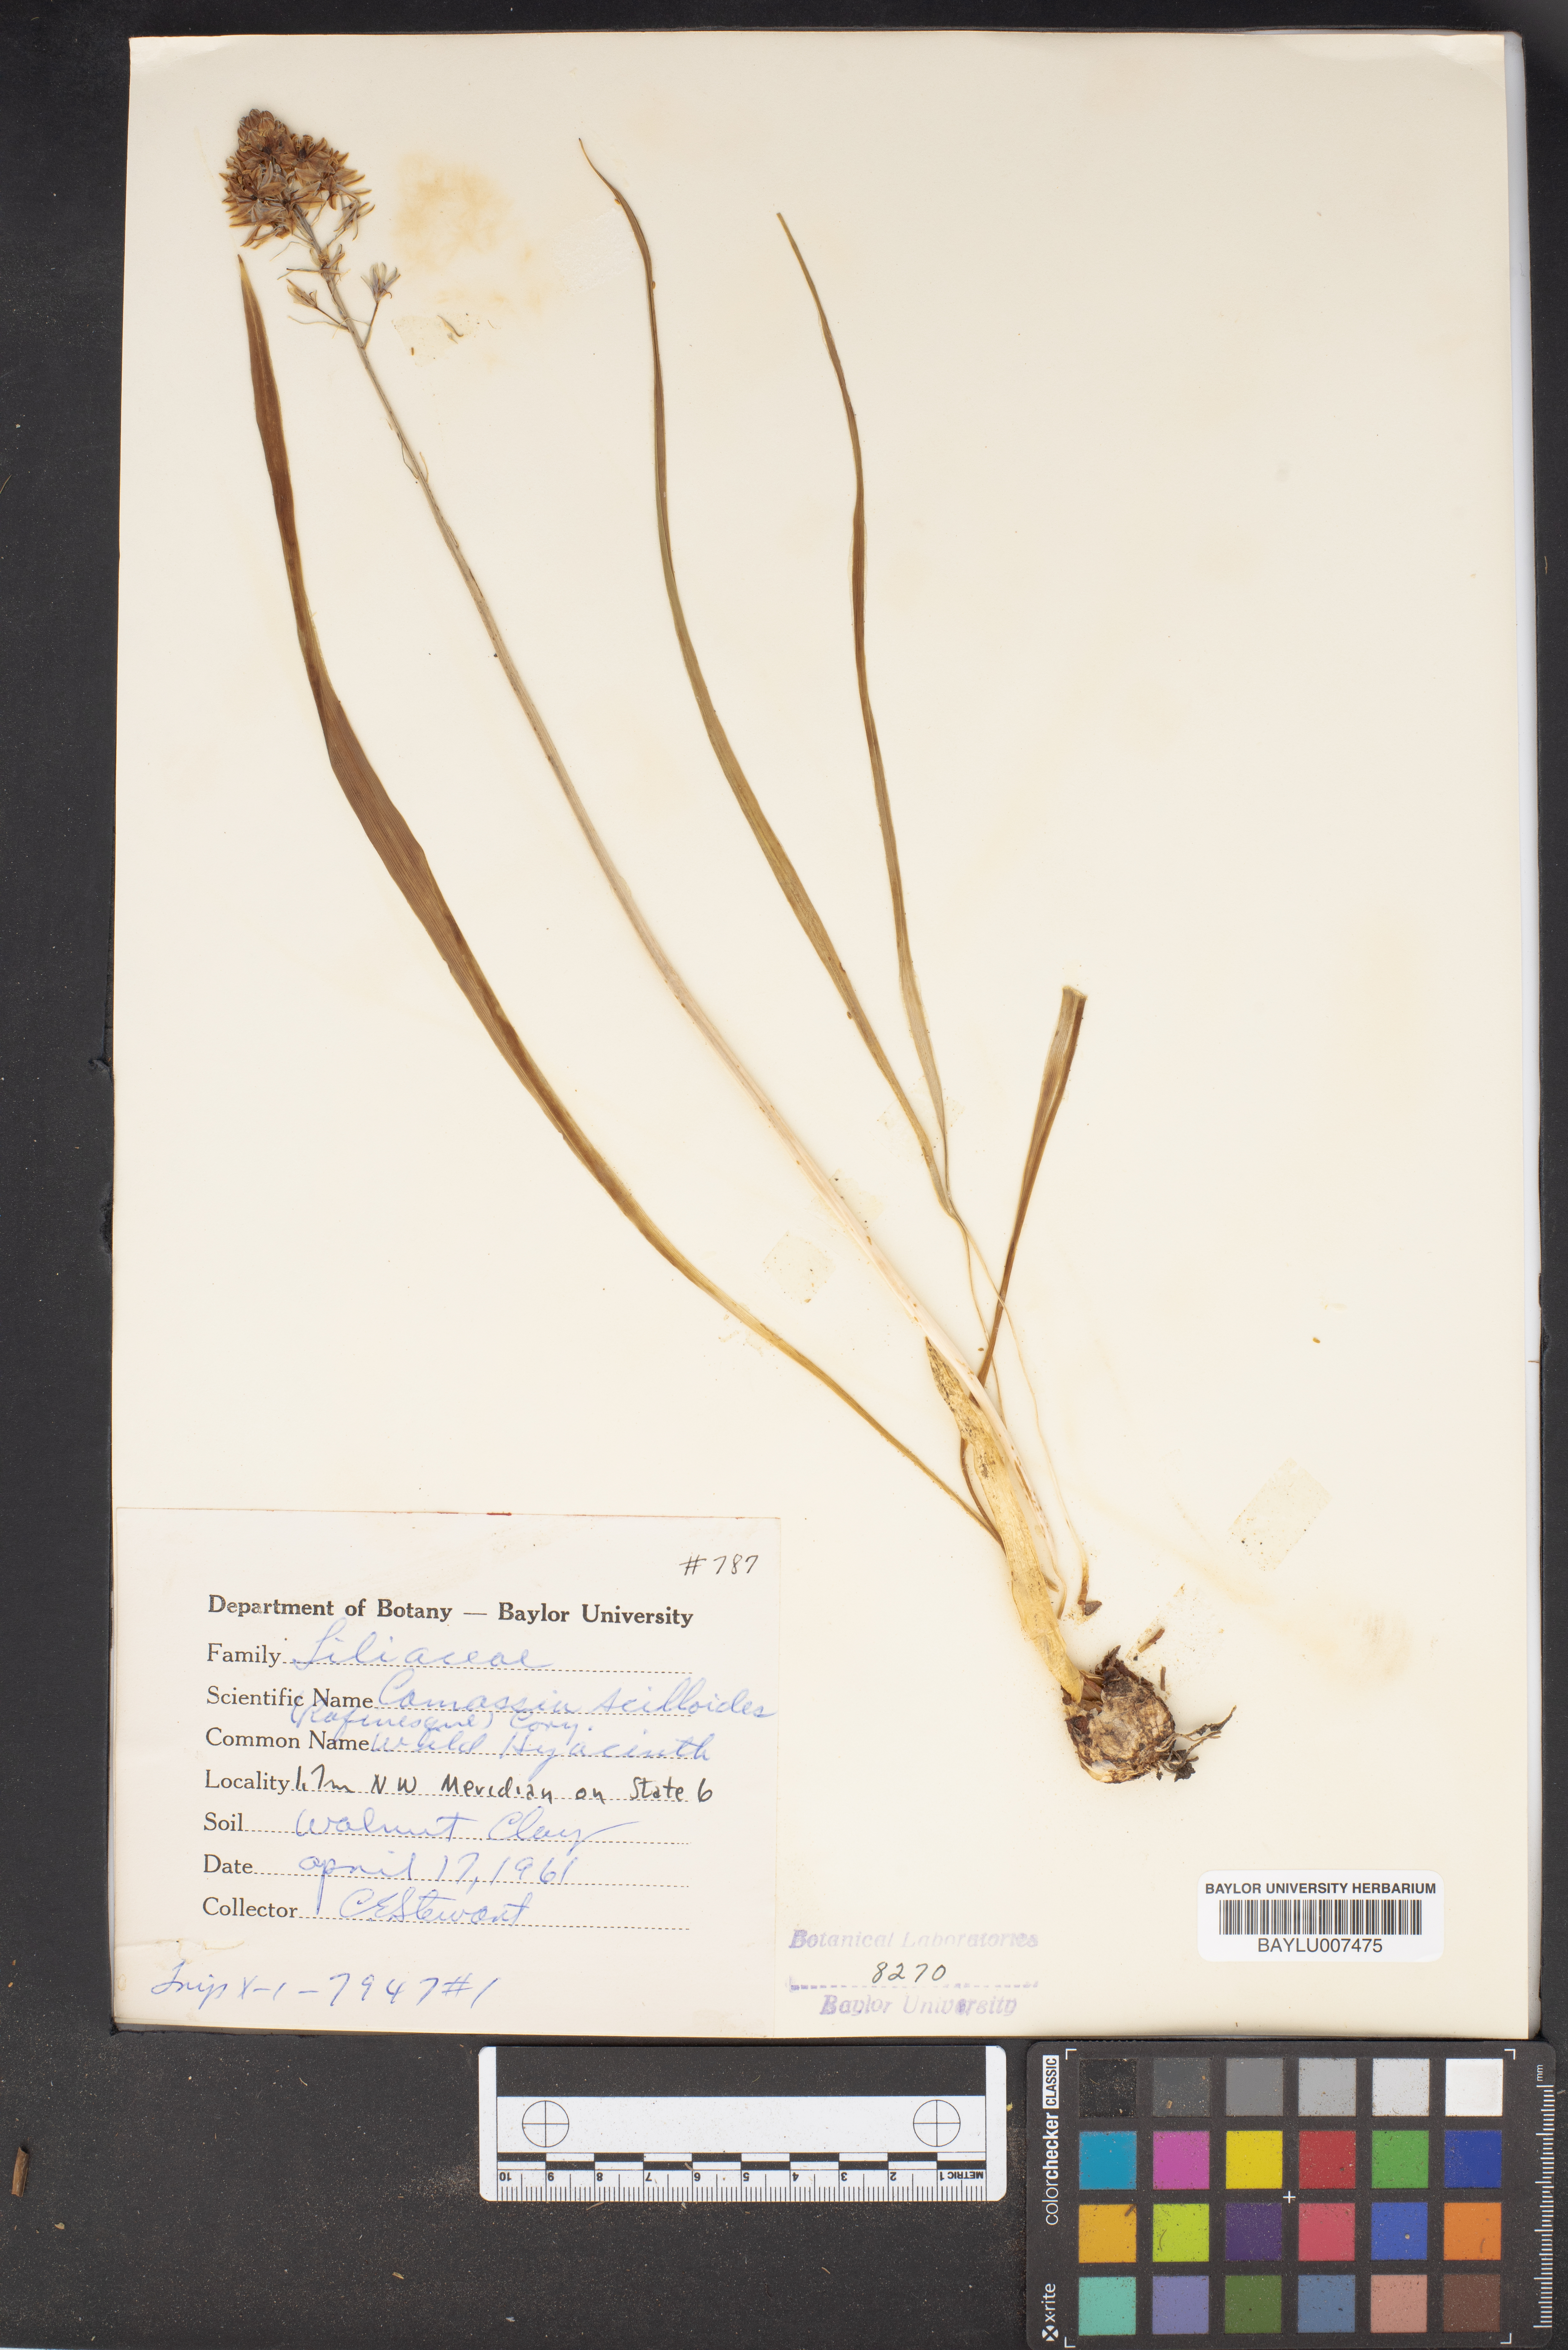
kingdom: Plantae
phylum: Tracheophyta
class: Liliopsida
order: Asparagales
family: Asparagaceae
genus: Camassia
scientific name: Camassia scilloides
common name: Wild hyacinth
